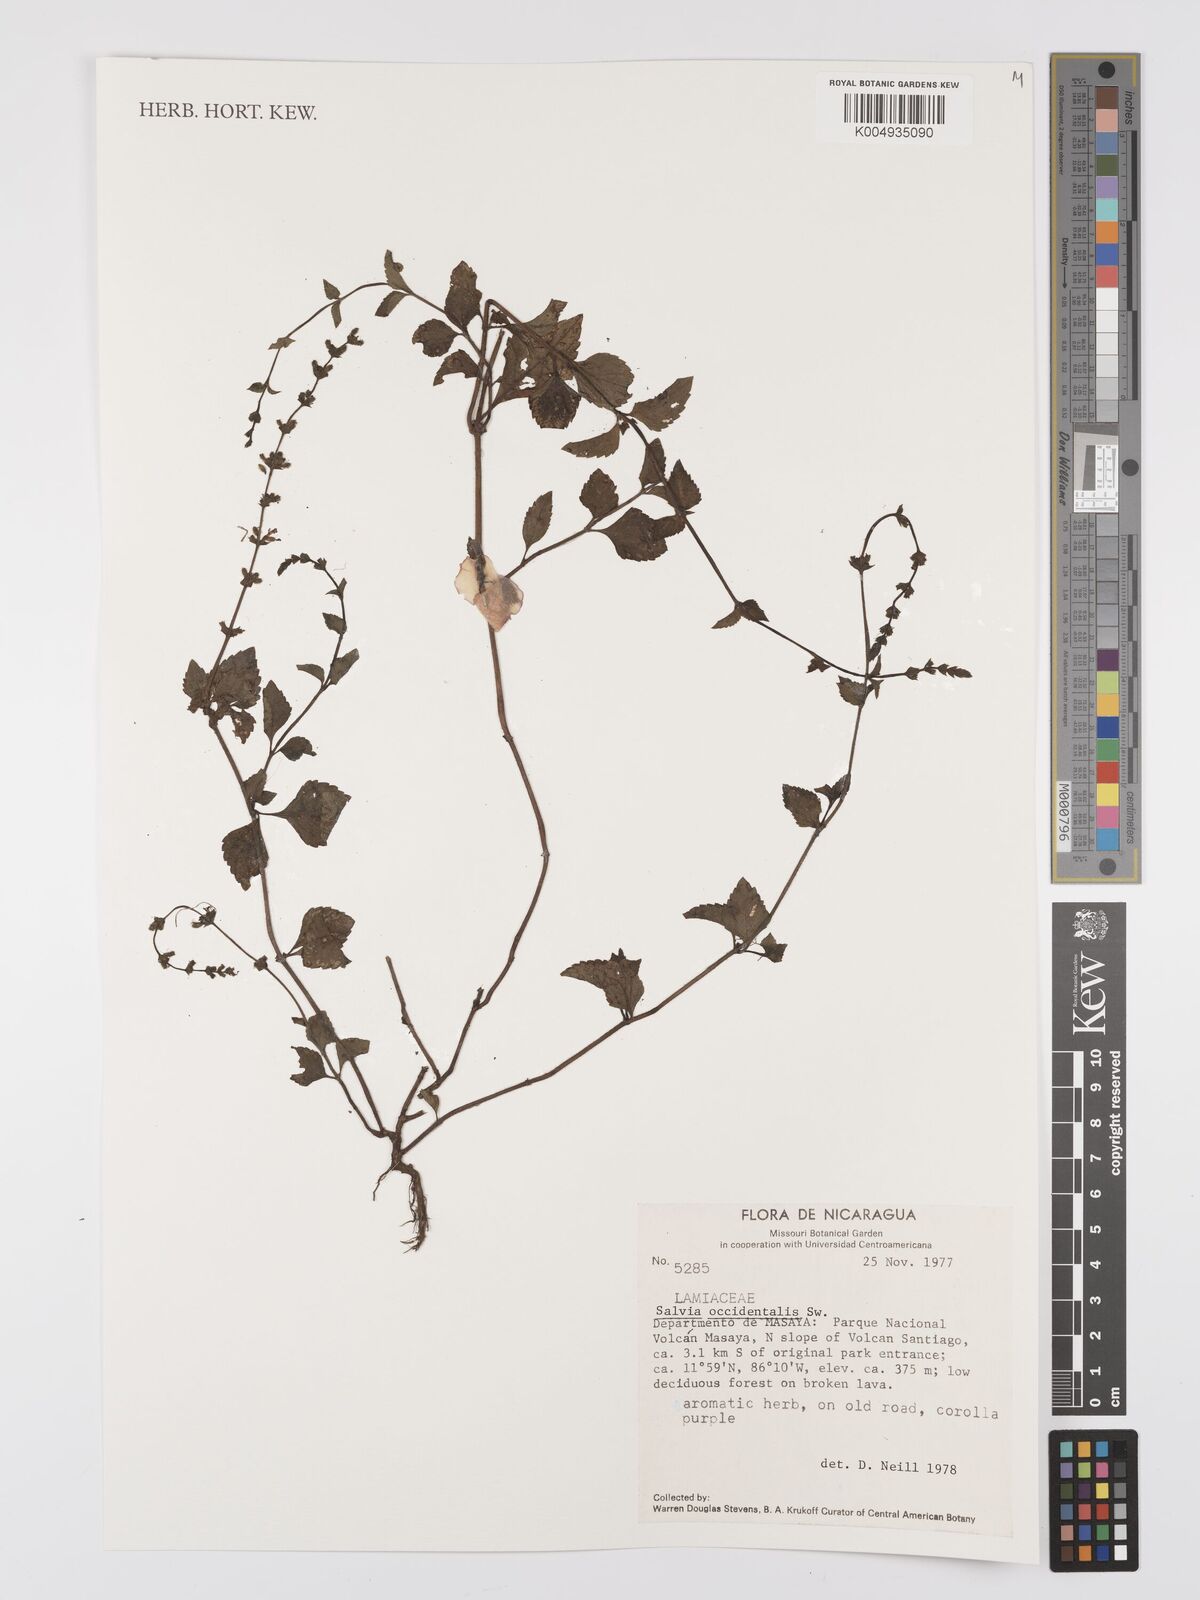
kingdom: Plantae
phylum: Tracheophyta
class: Magnoliopsida
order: Lamiales
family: Lamiaceae
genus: Salvia
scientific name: Salvia occidentalis
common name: West indian sage
